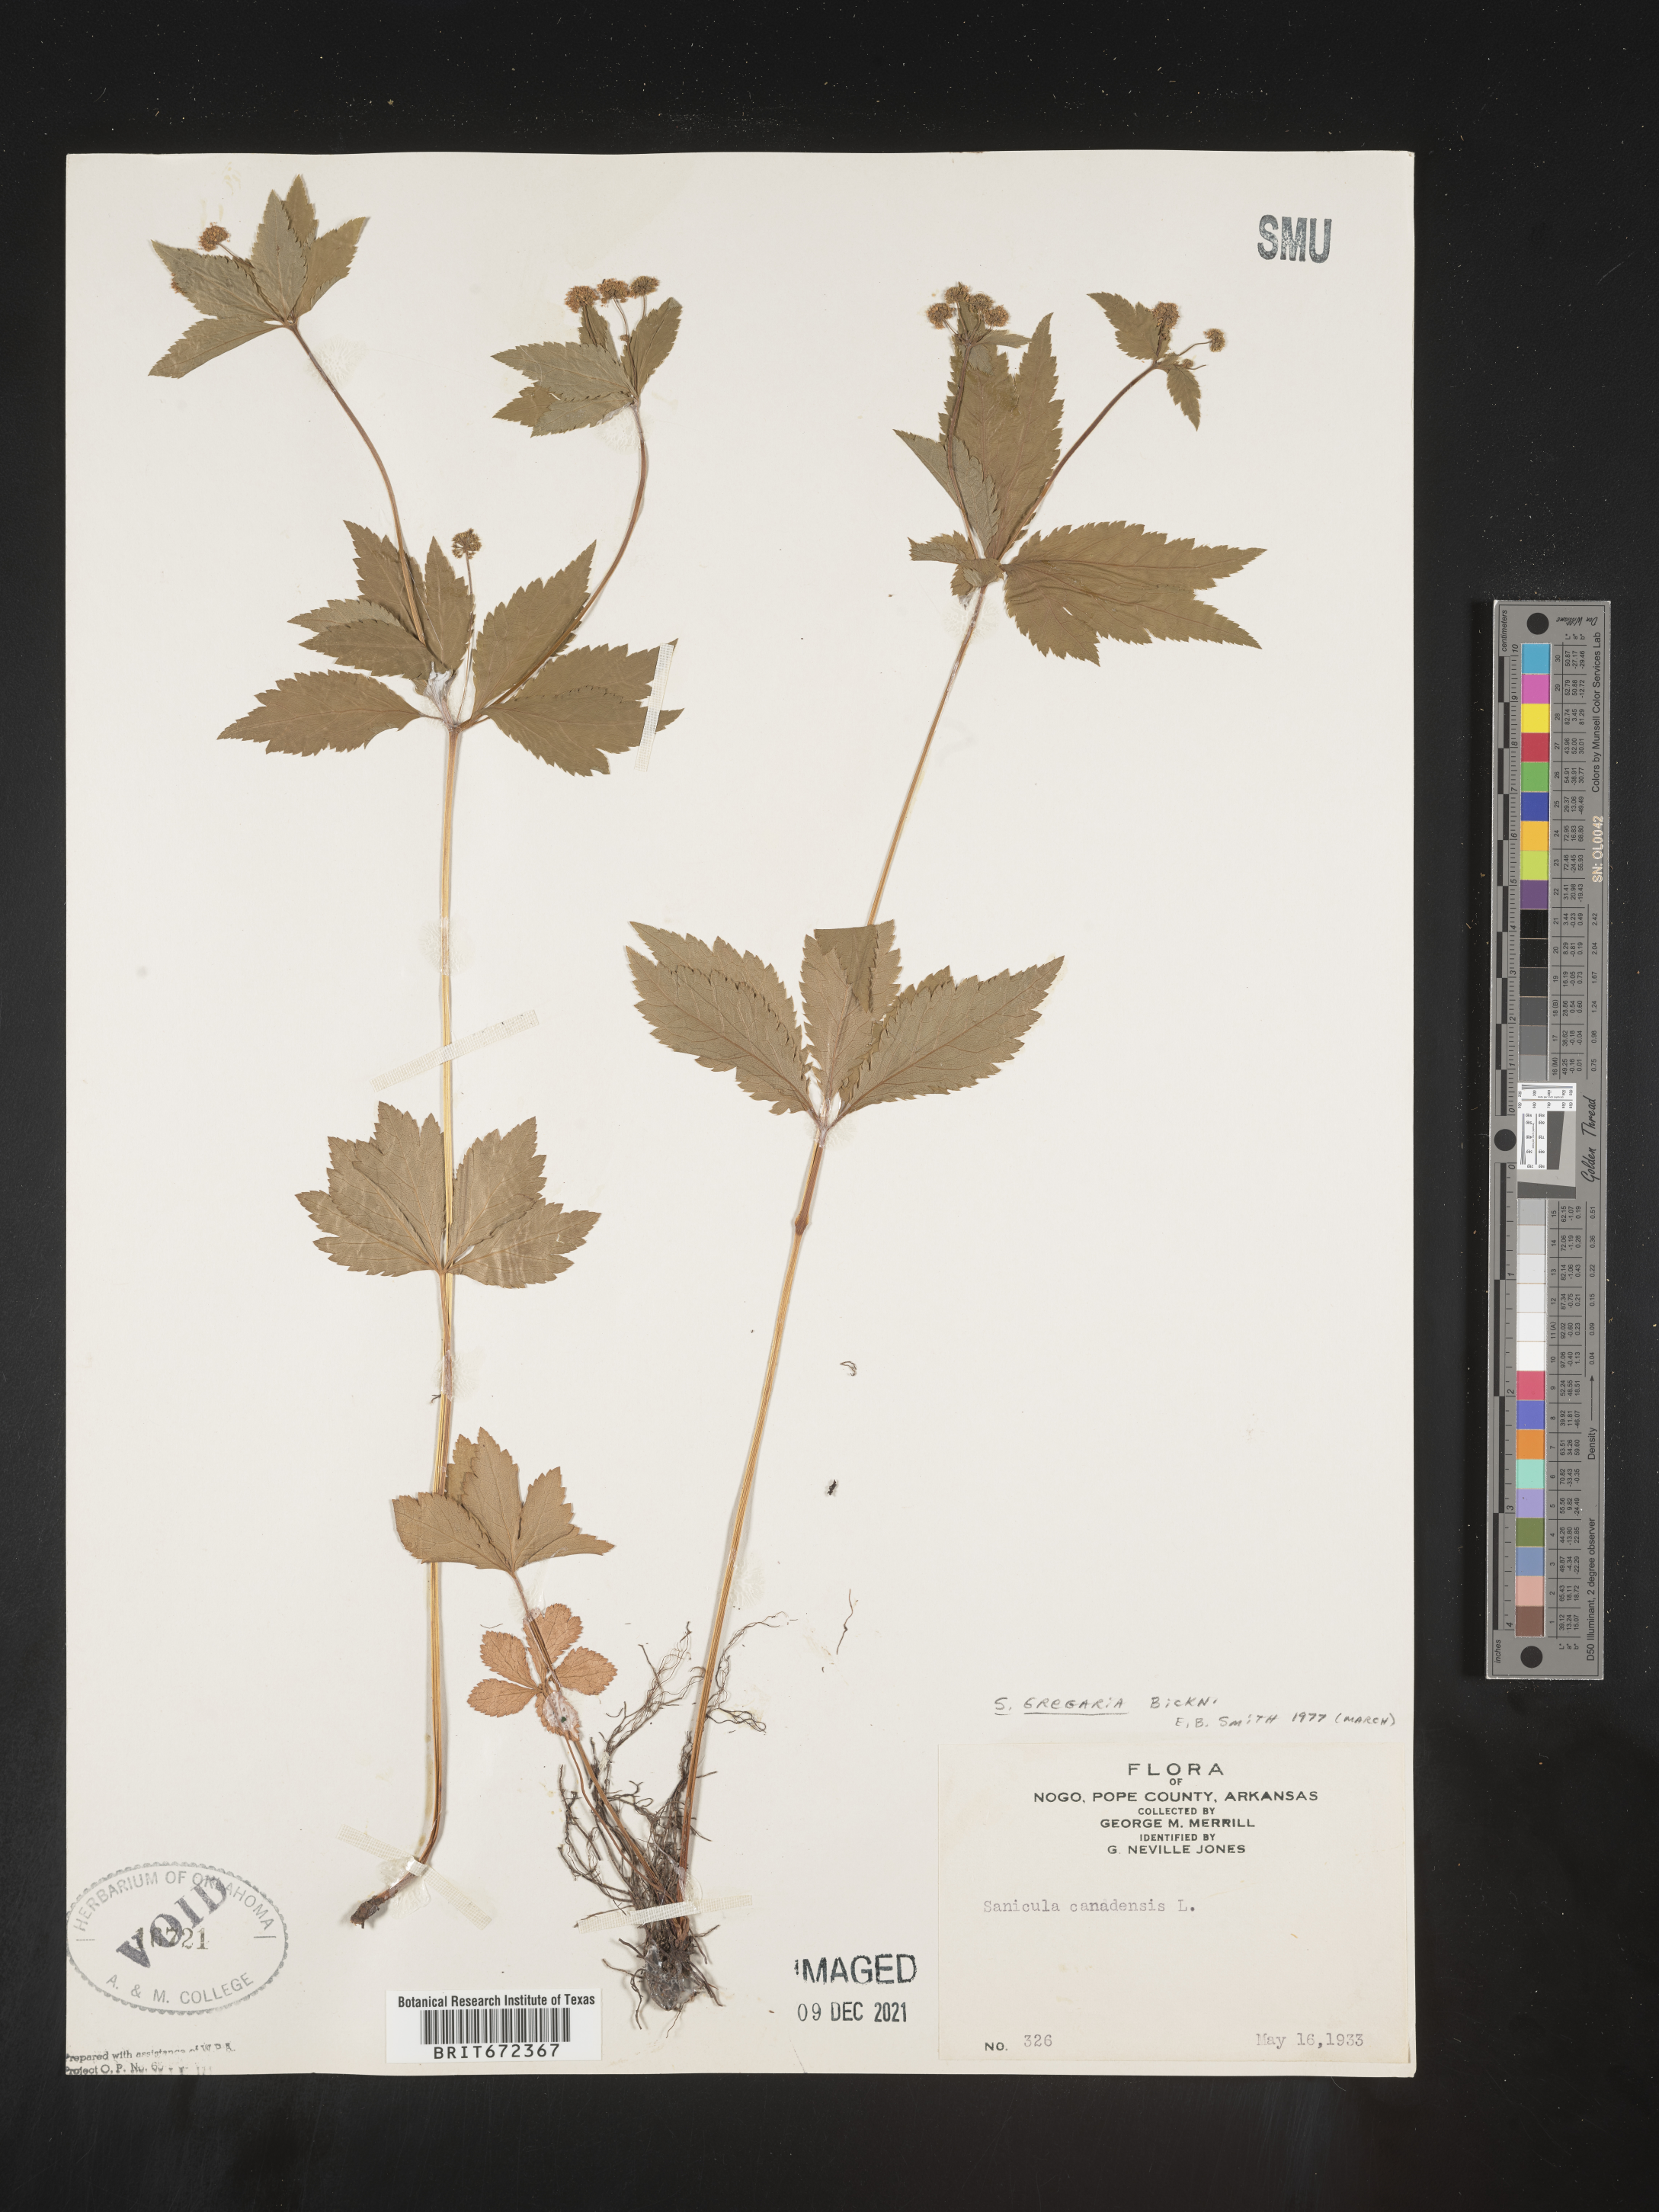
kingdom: Plantae
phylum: Tracheophyta
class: Magnoliopsida
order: Apiales
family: Apiaceae
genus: Sanicula
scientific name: Sanicula odorata
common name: Cluster sanicle
